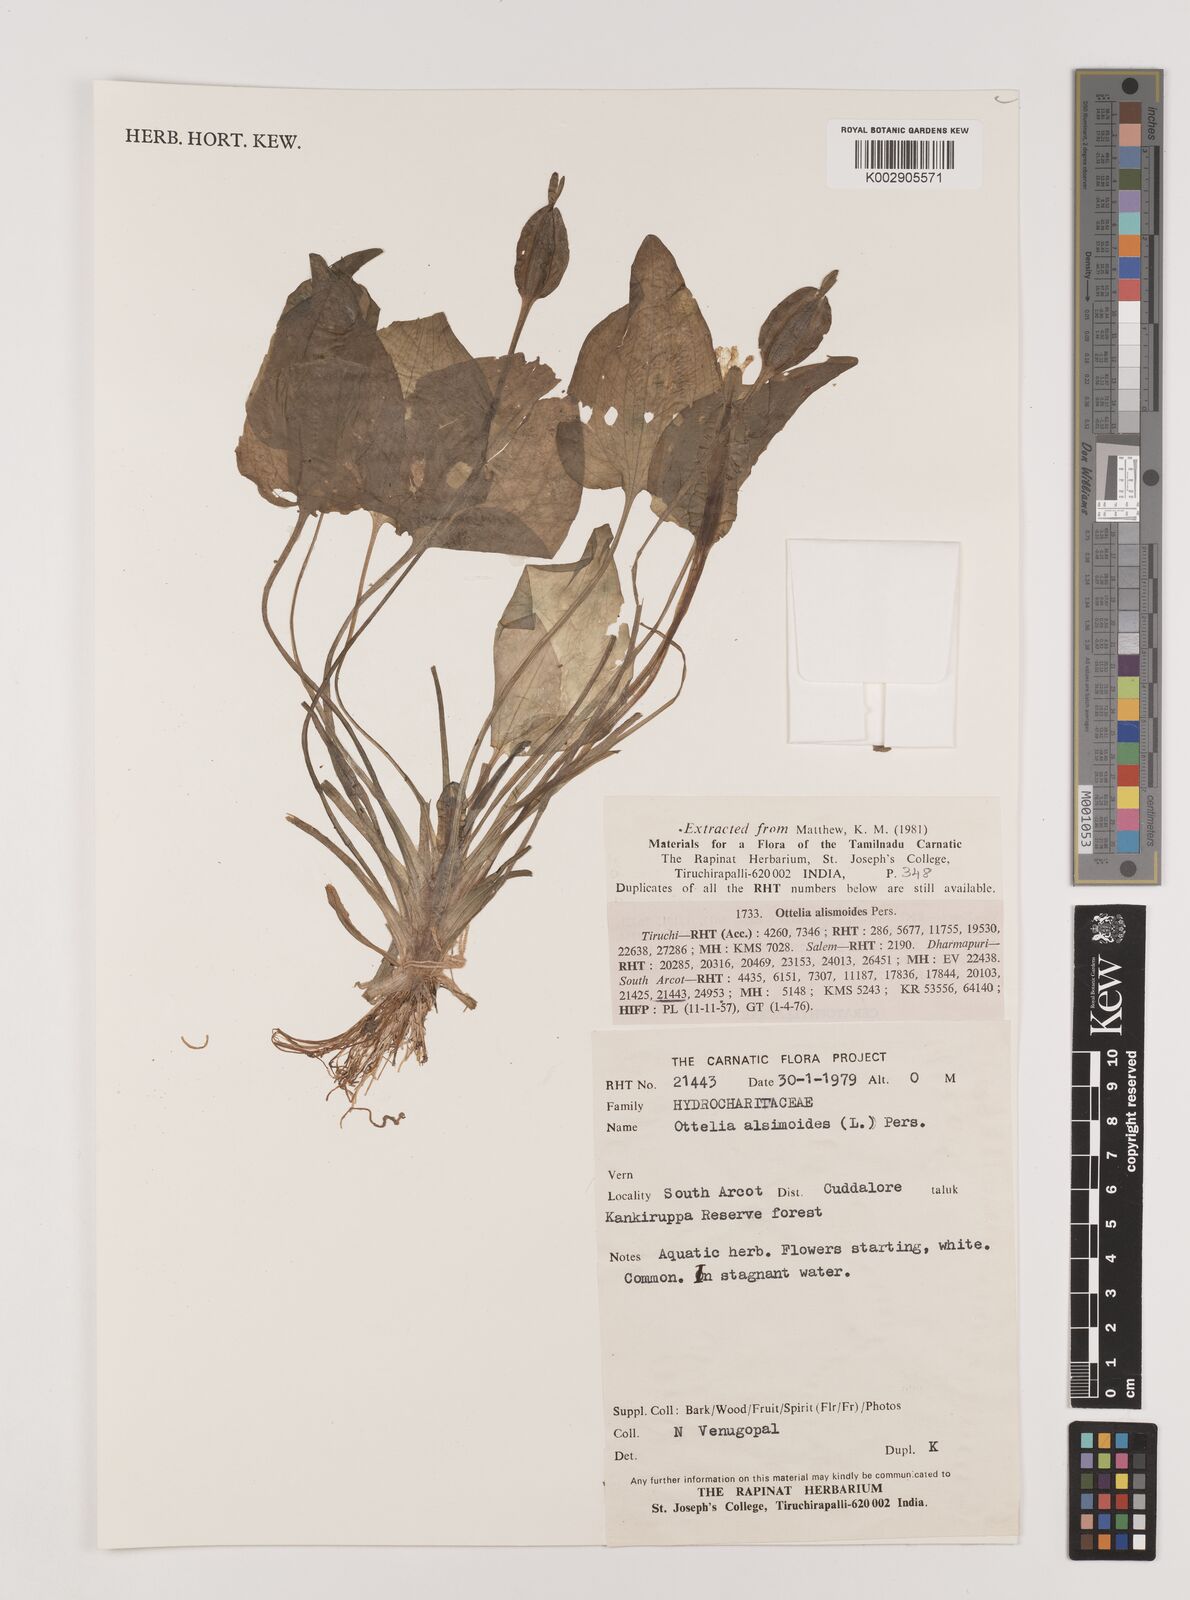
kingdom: Plantae
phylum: Tracheophyta
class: Liliopsida
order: Alismatales
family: Hydrocharitaceae
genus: Ottelia
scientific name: Ottelia alismoides
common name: Duck-lettuce
